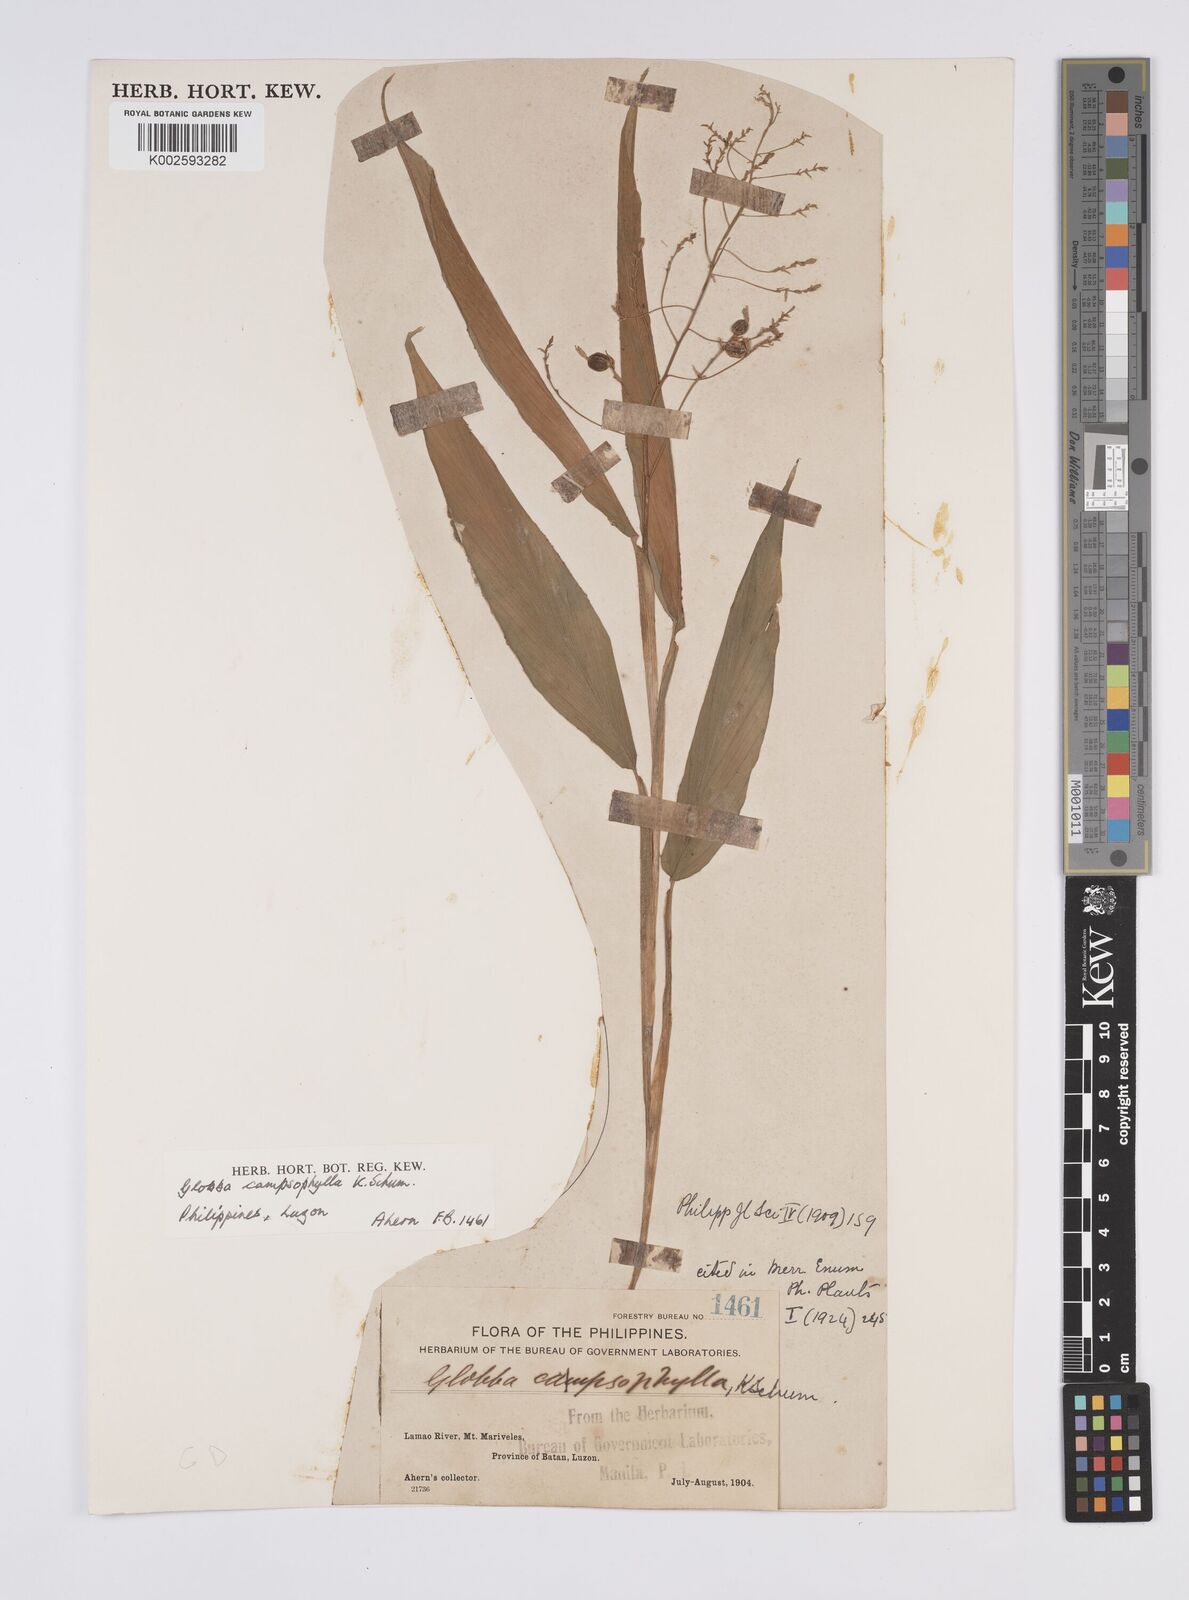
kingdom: Plantae
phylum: Tracheophyta
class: Liliopsida
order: Zingiberales
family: Zingiberaceae
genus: Globba
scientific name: Globba campsophylla
